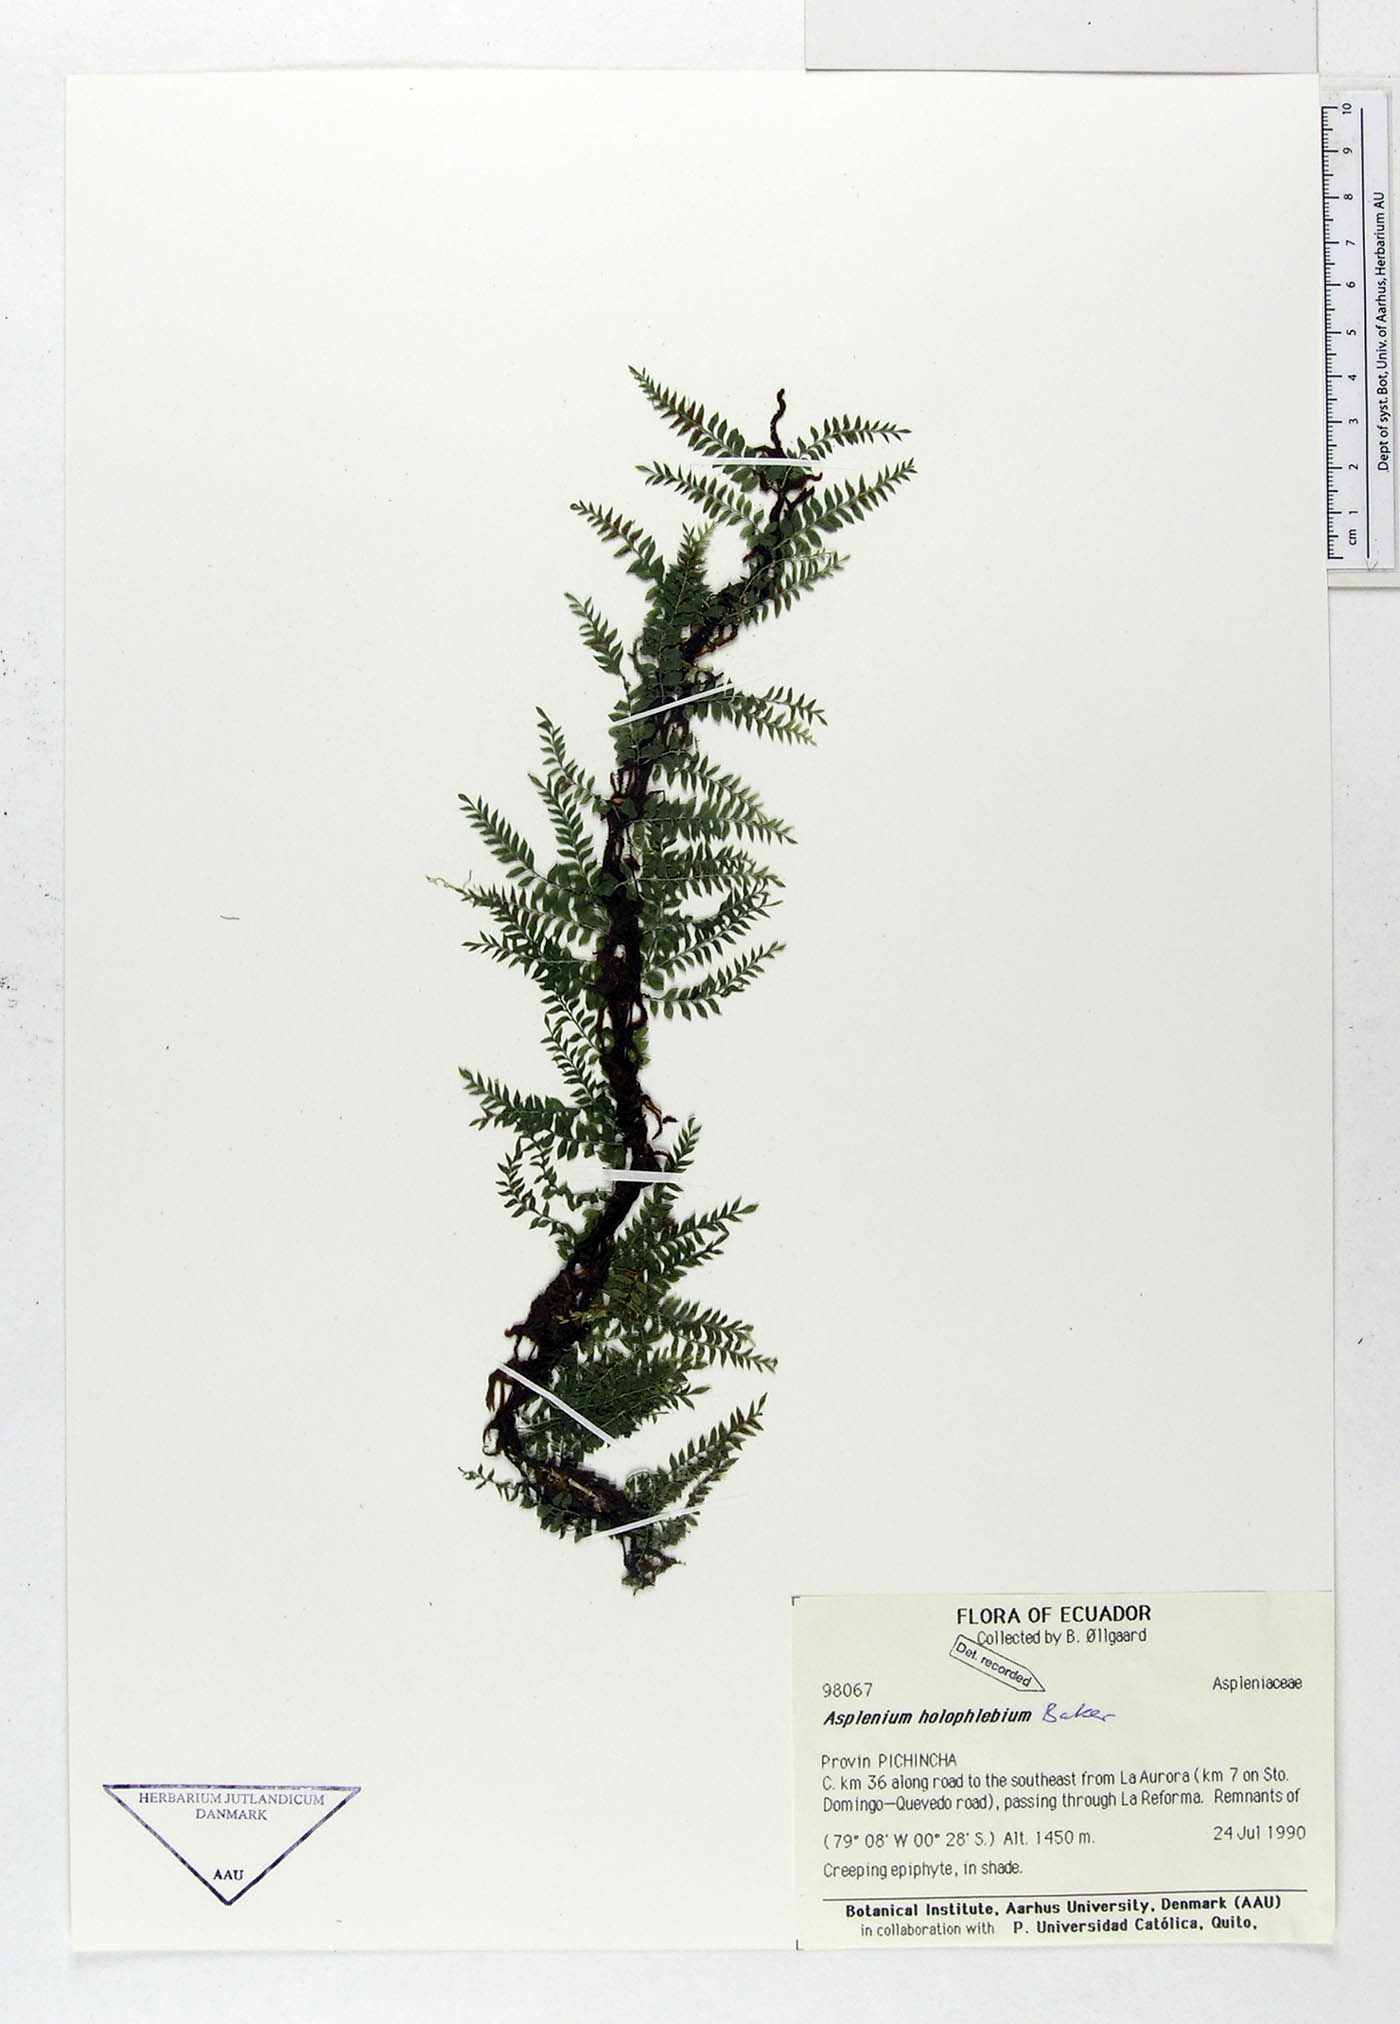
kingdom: Plantae
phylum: Tracheophyta
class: Polypodiopsida
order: Polypodiales
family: Aspleniaceae
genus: Asplenium
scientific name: Asplenium holophlebium
